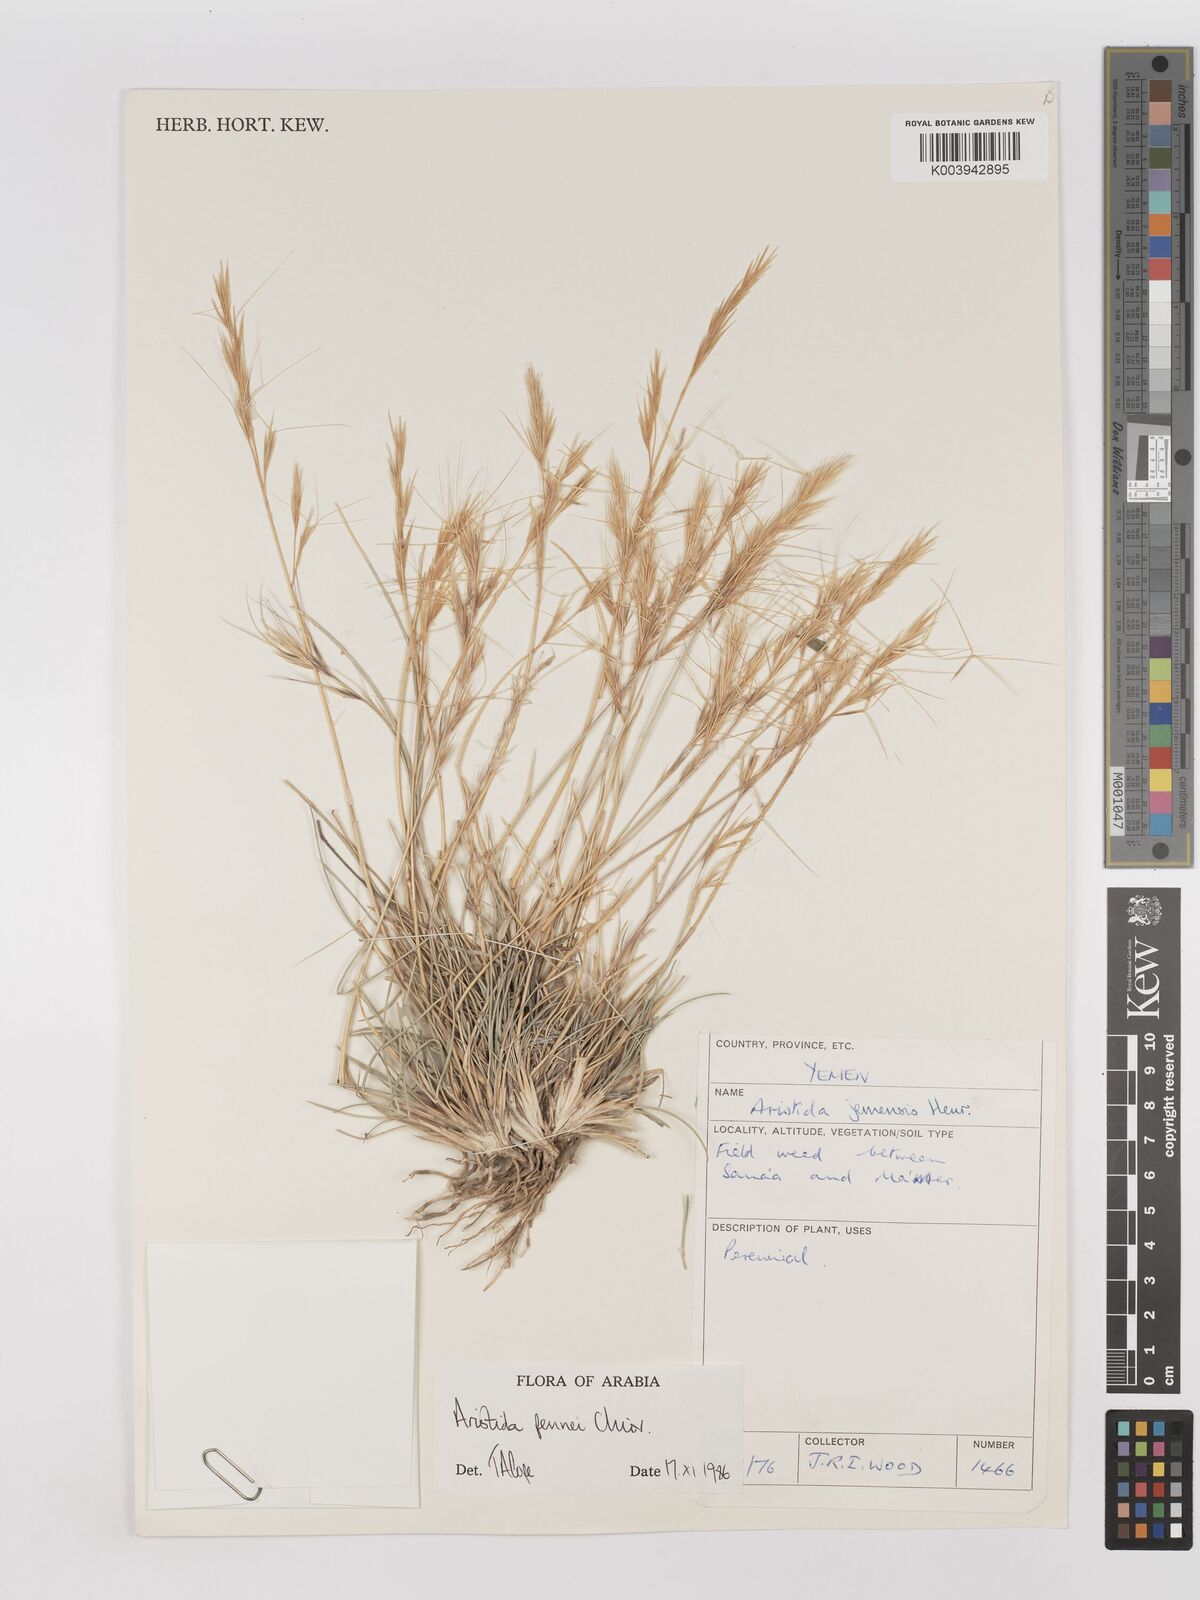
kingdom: Plantae
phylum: Tracheophyta
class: Liliopsida
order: Poales
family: Poaceae
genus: Aristida
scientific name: Aristida pennei
